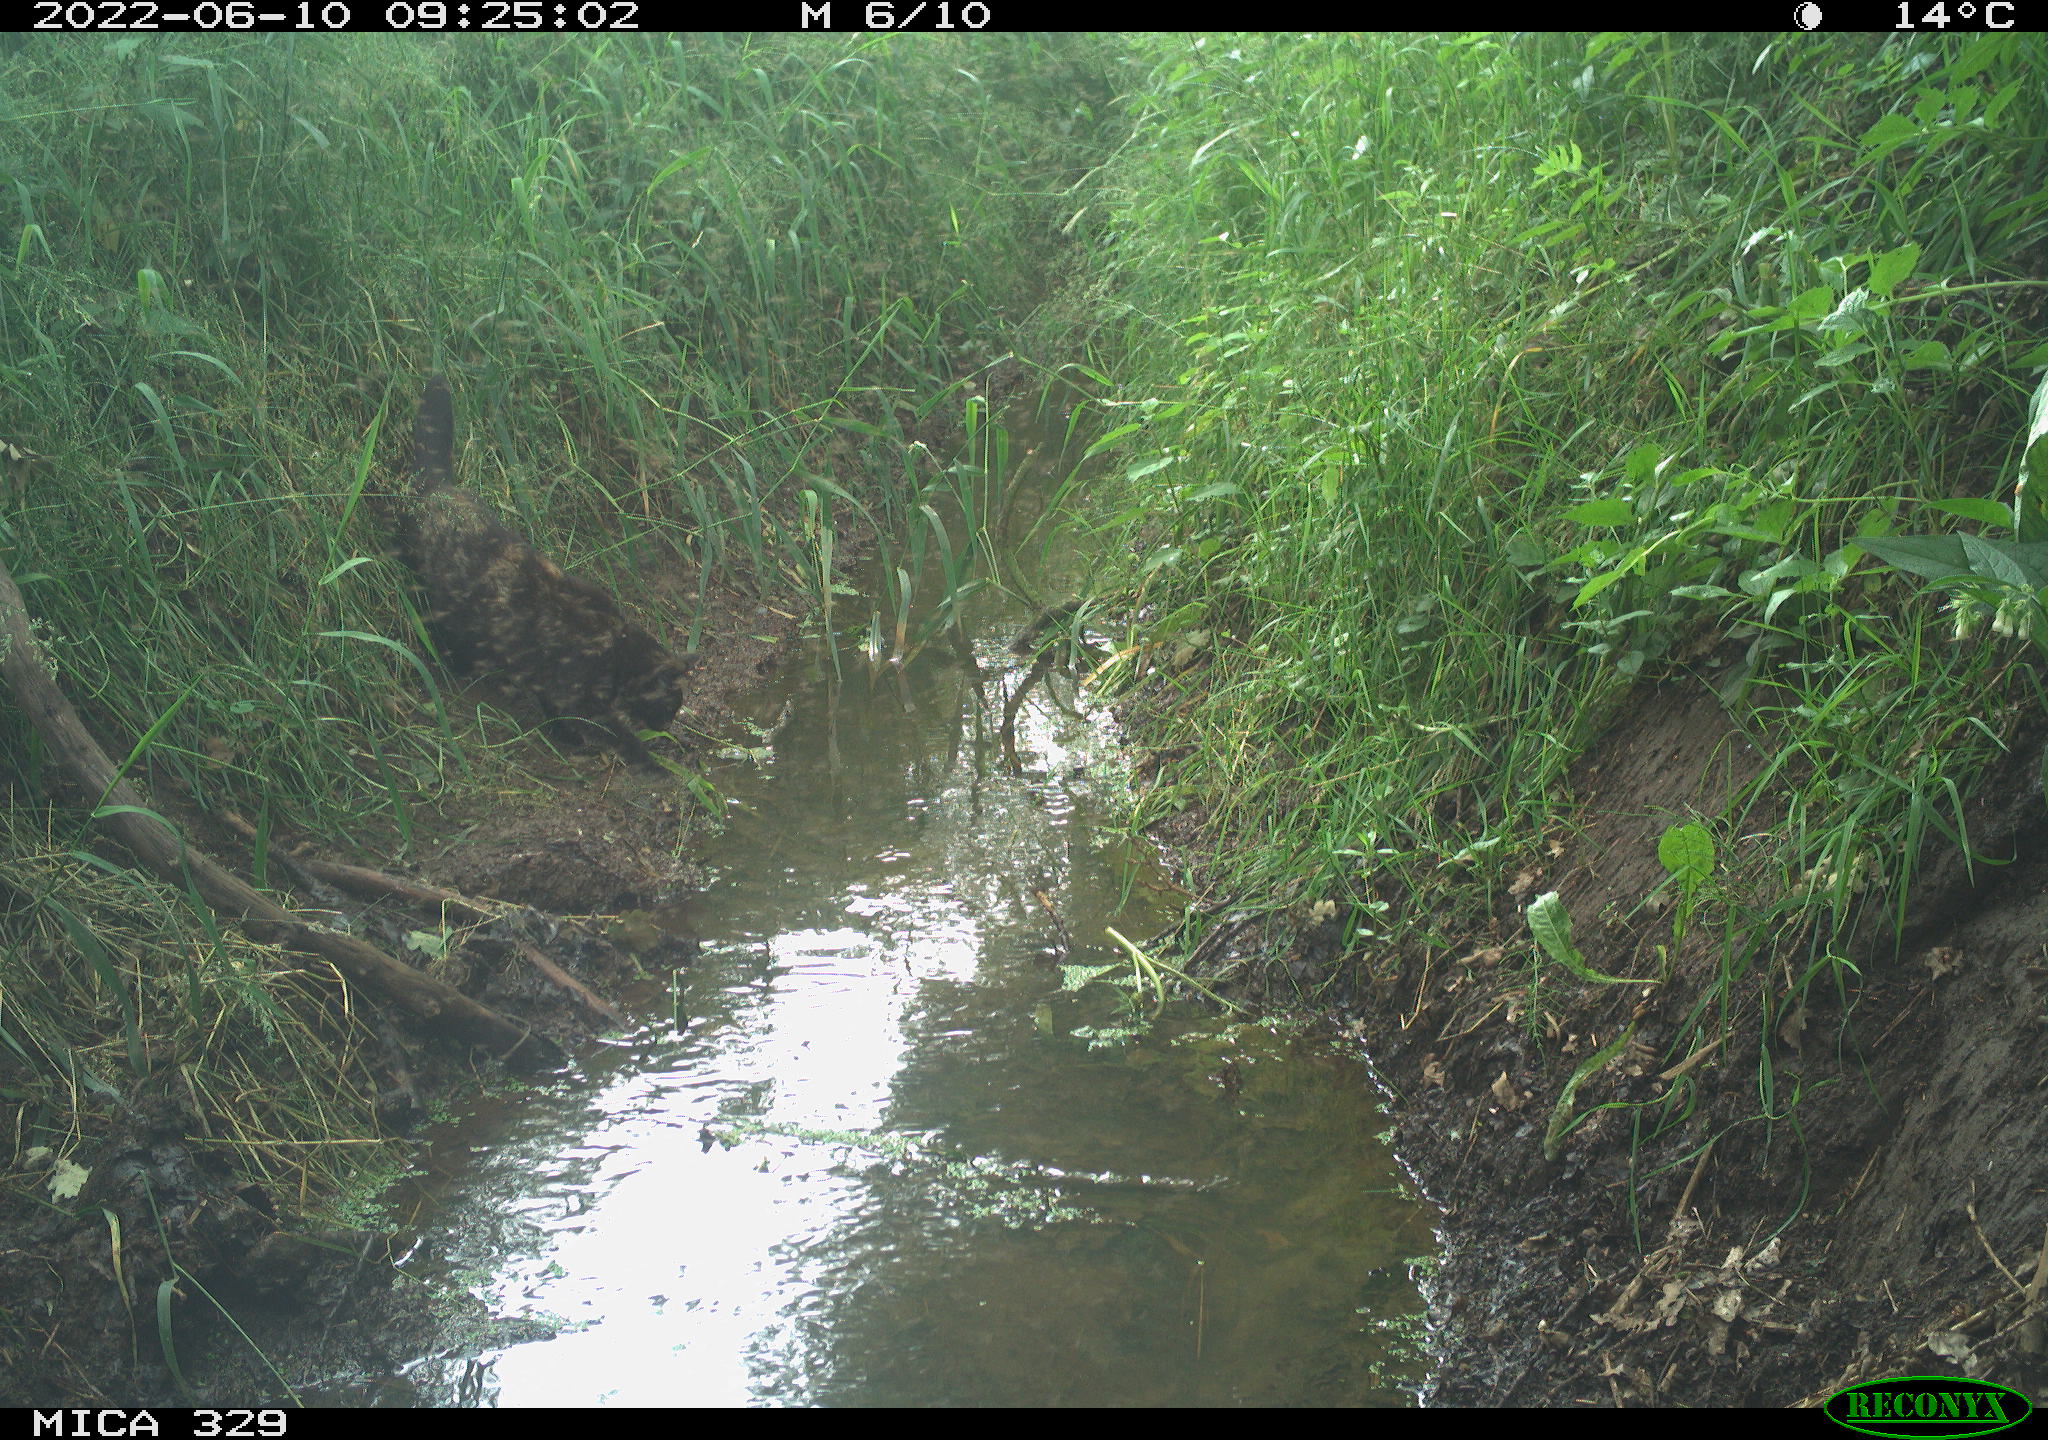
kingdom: Animalia
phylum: Chordata
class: Mammalia
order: Carnivora
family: Felidae
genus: Felis
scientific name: Felis catus
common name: Domestic cat
